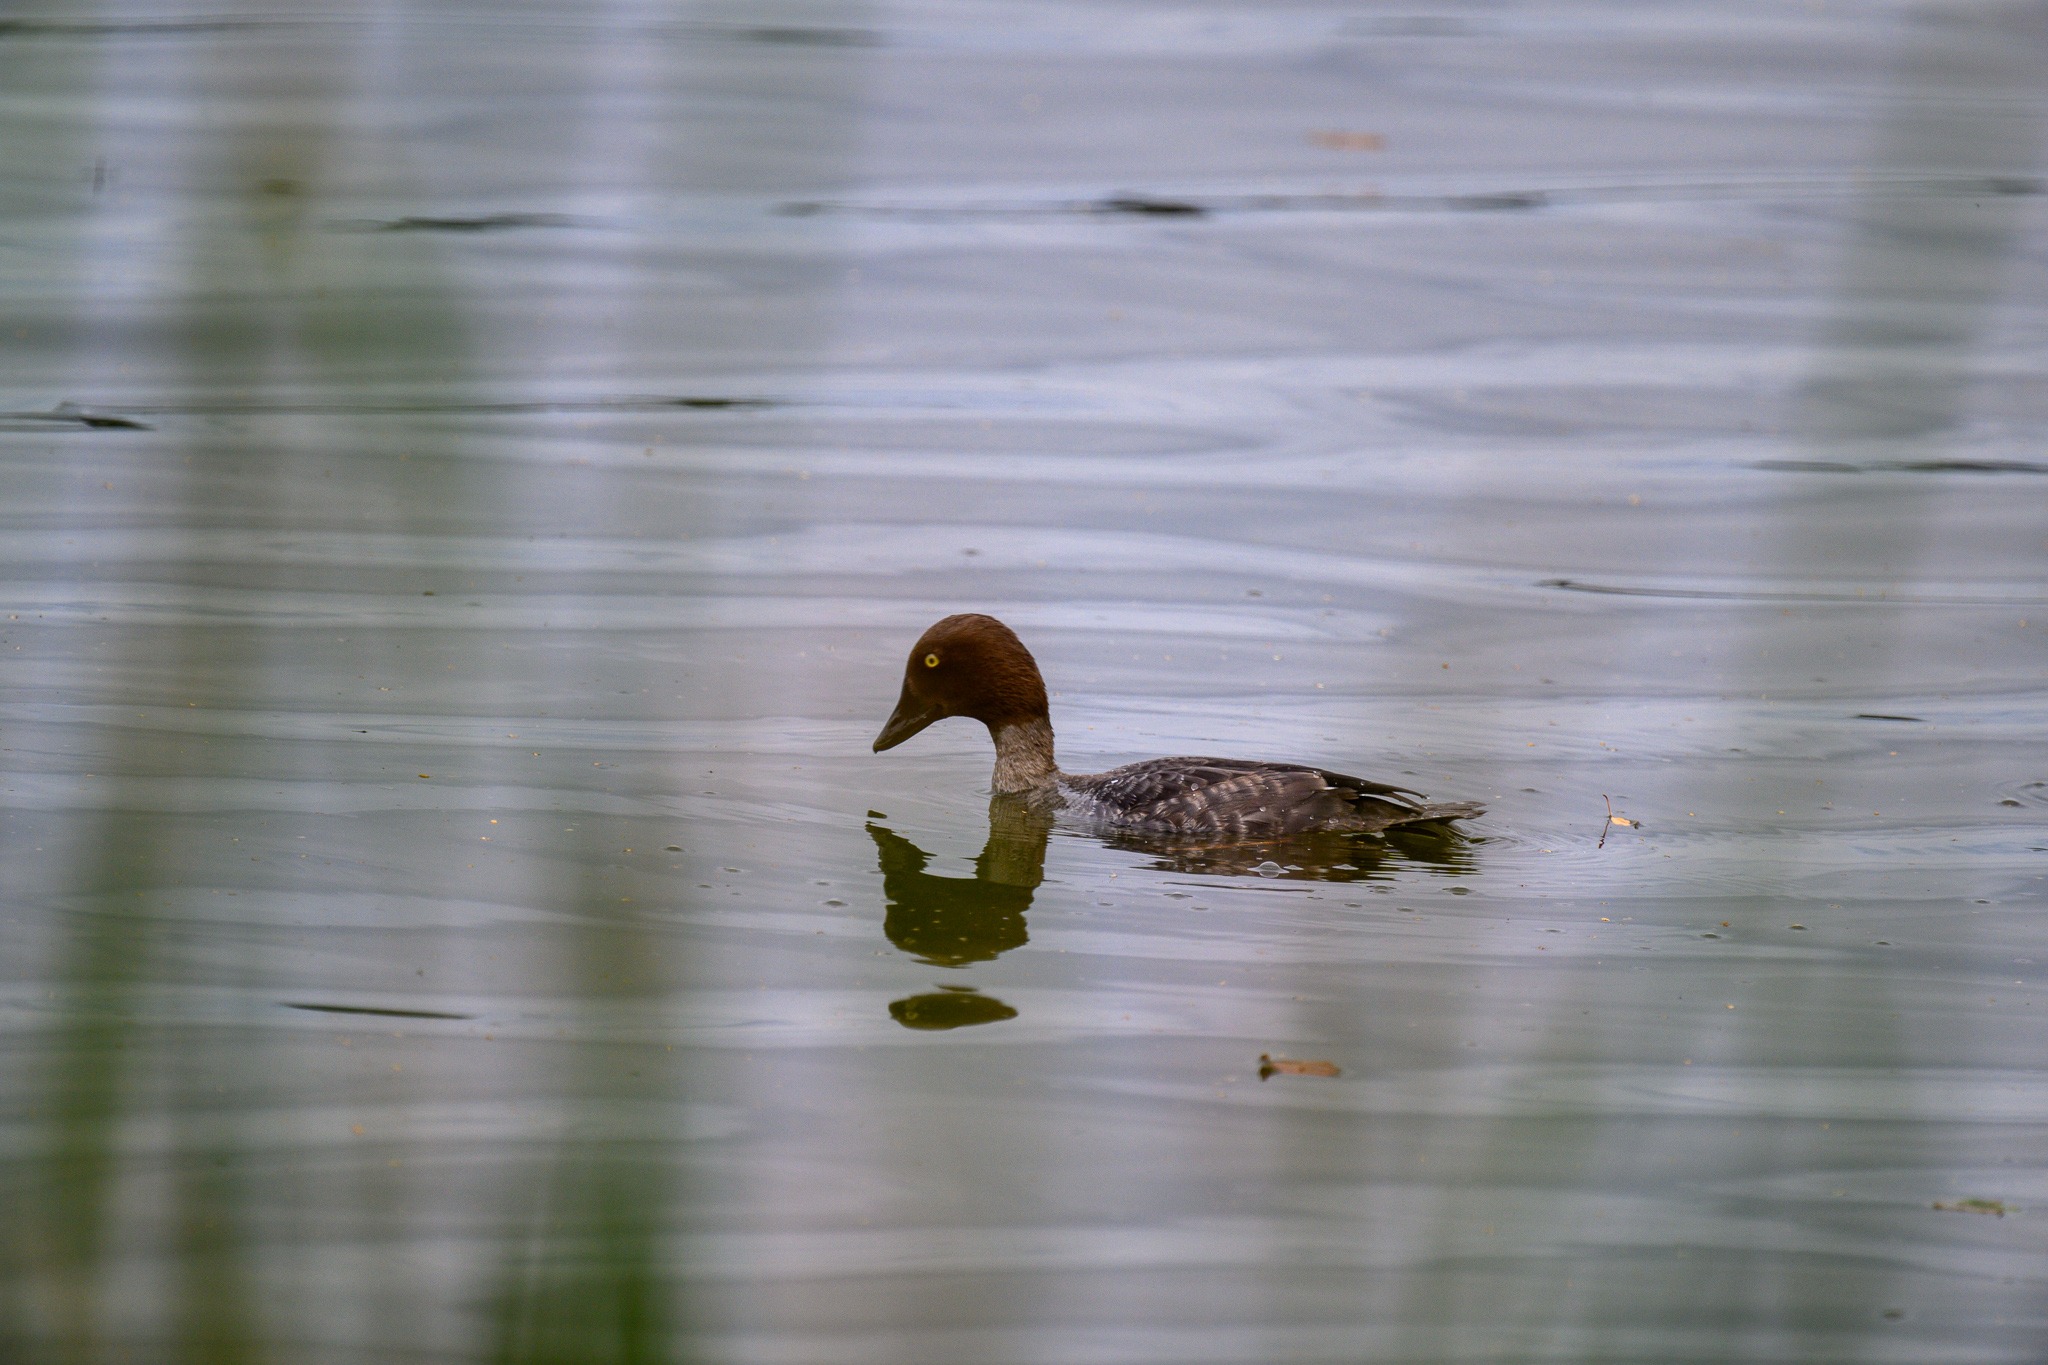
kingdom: Animalia
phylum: Chordata
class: Aves
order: Anseriformes
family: Anatidae
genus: Bucephala
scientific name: Bucephala clangula
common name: Hvinand
